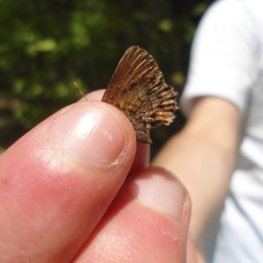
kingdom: Animalia
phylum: Arthropoda
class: Insecta
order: Lepidoptera
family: Lycaenidae
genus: Incisalia
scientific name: Incisalia niphon
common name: Eastern Pine Elfin
